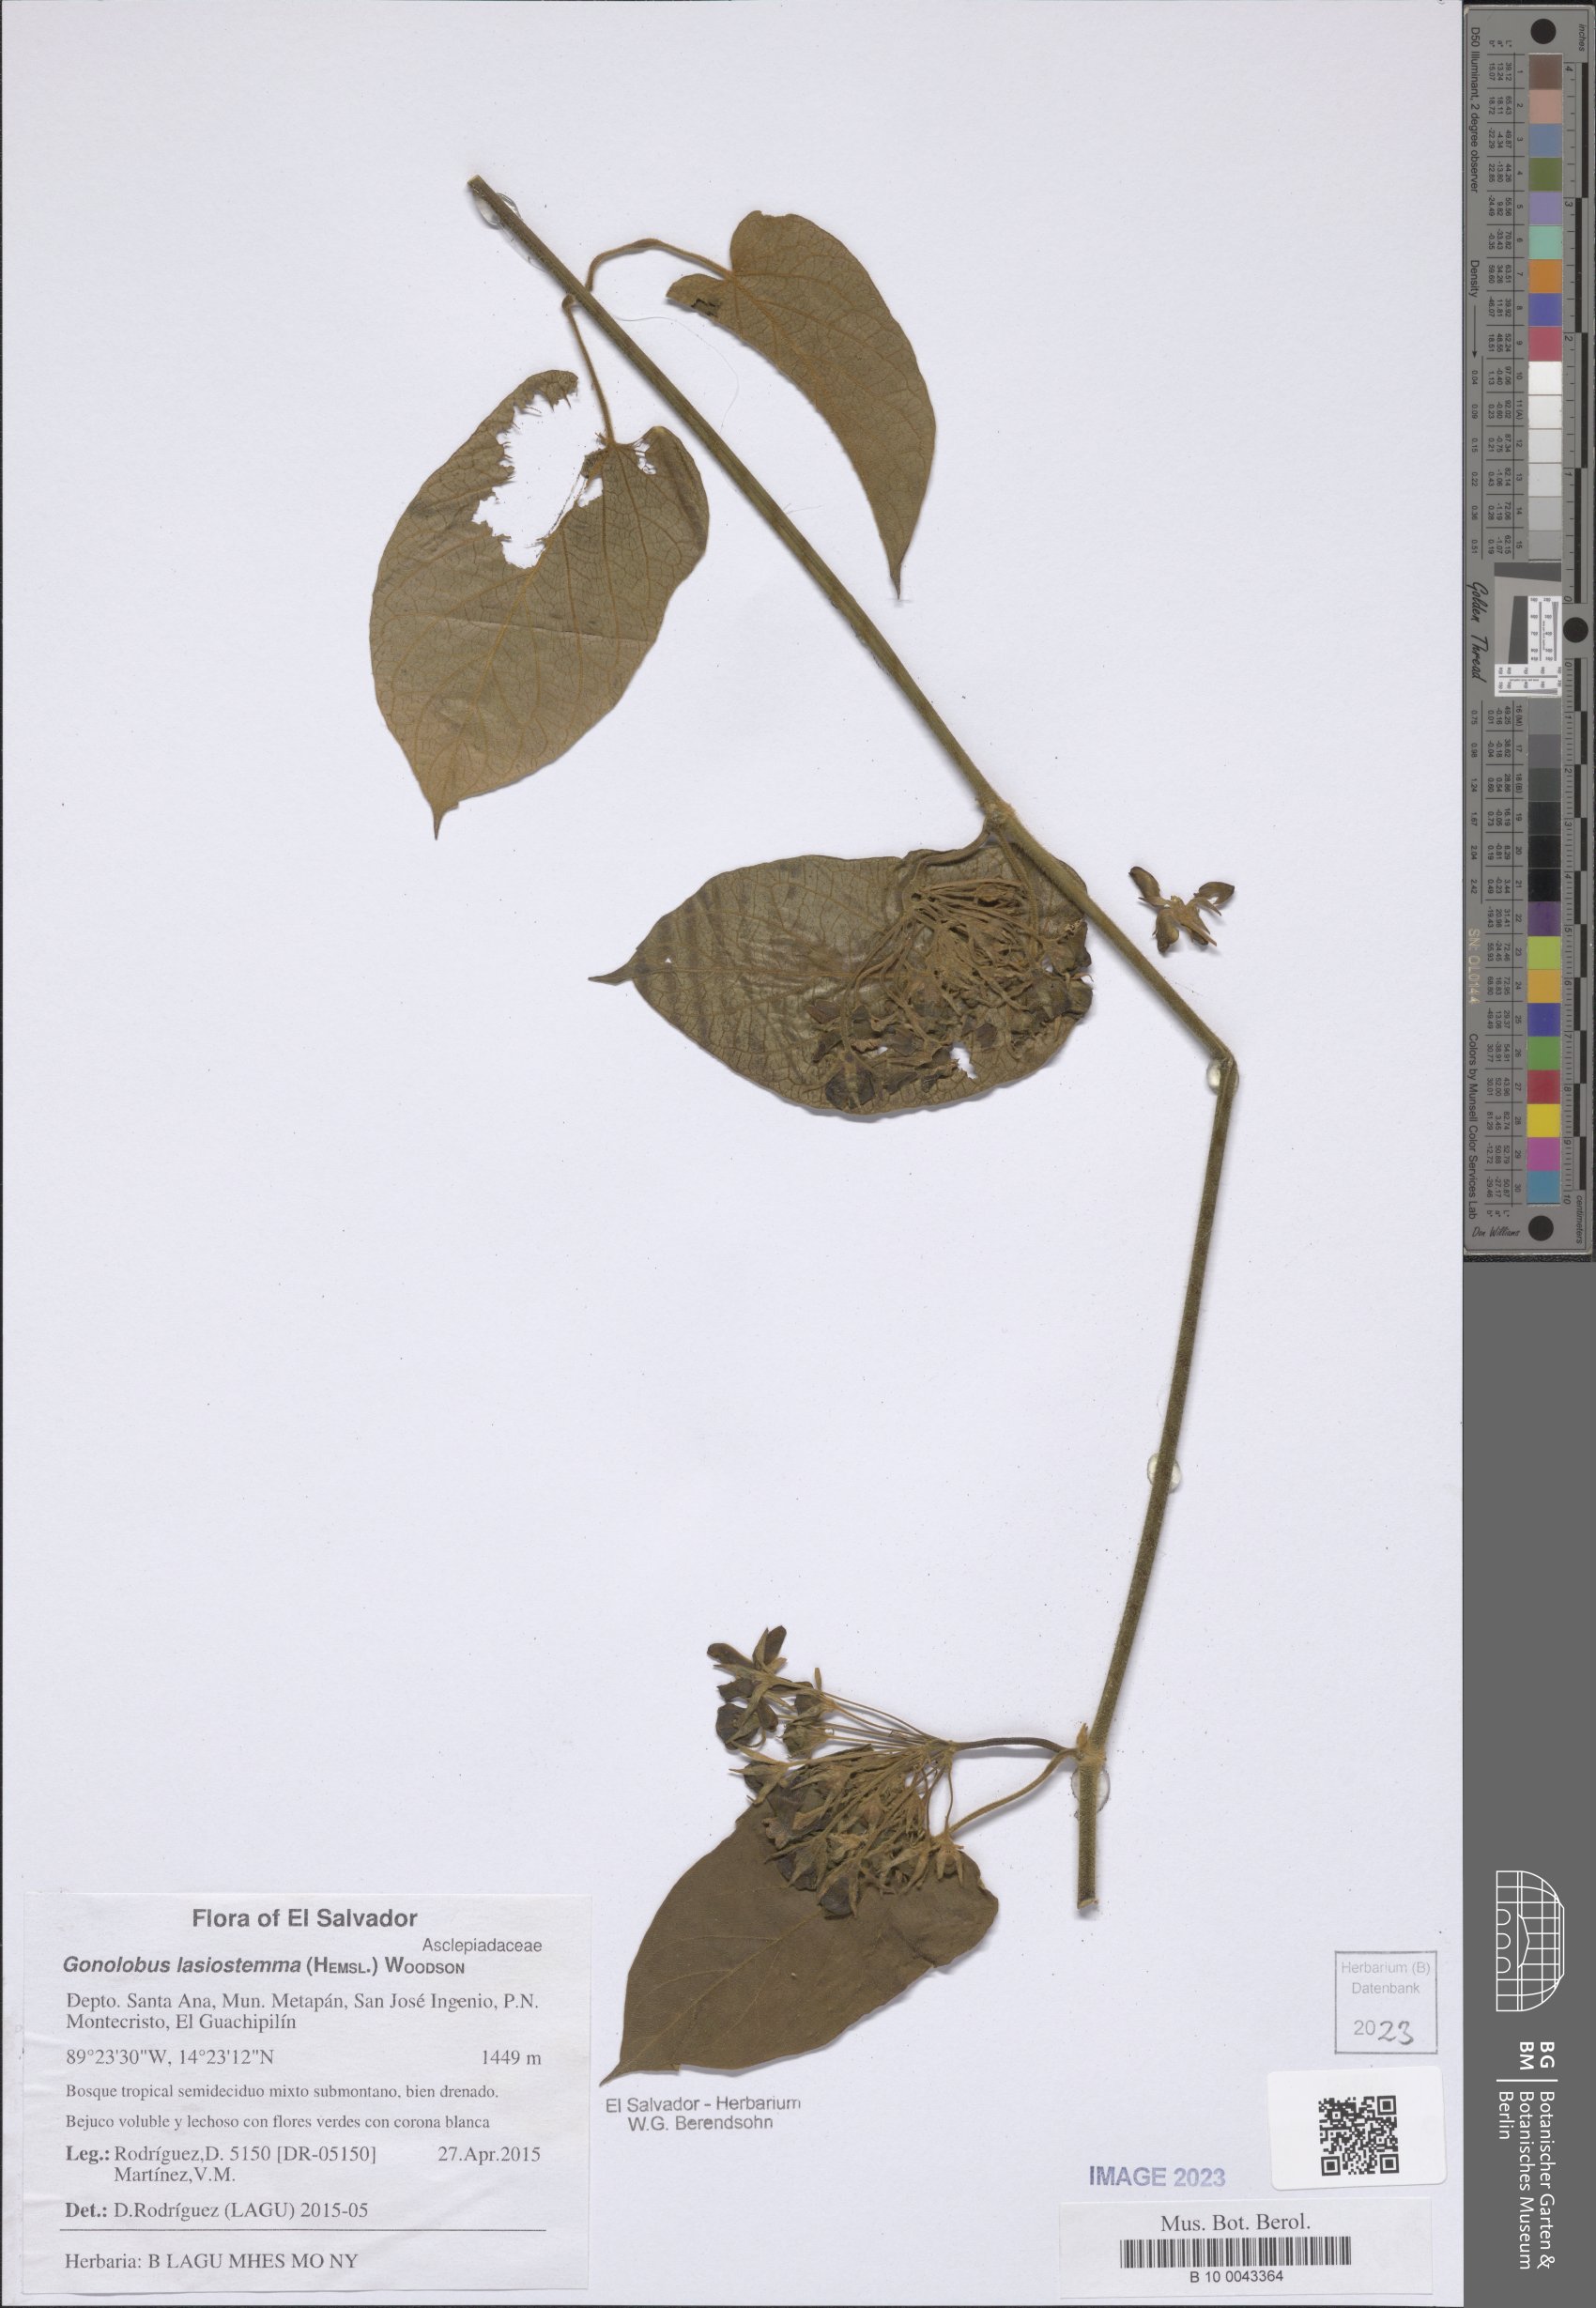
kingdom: Plantae
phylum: Tracheophyta
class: Magnoliopsida
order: Gentianales
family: Apocynaceae
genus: Gonolobus
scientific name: Gonolobus lasiostemma
